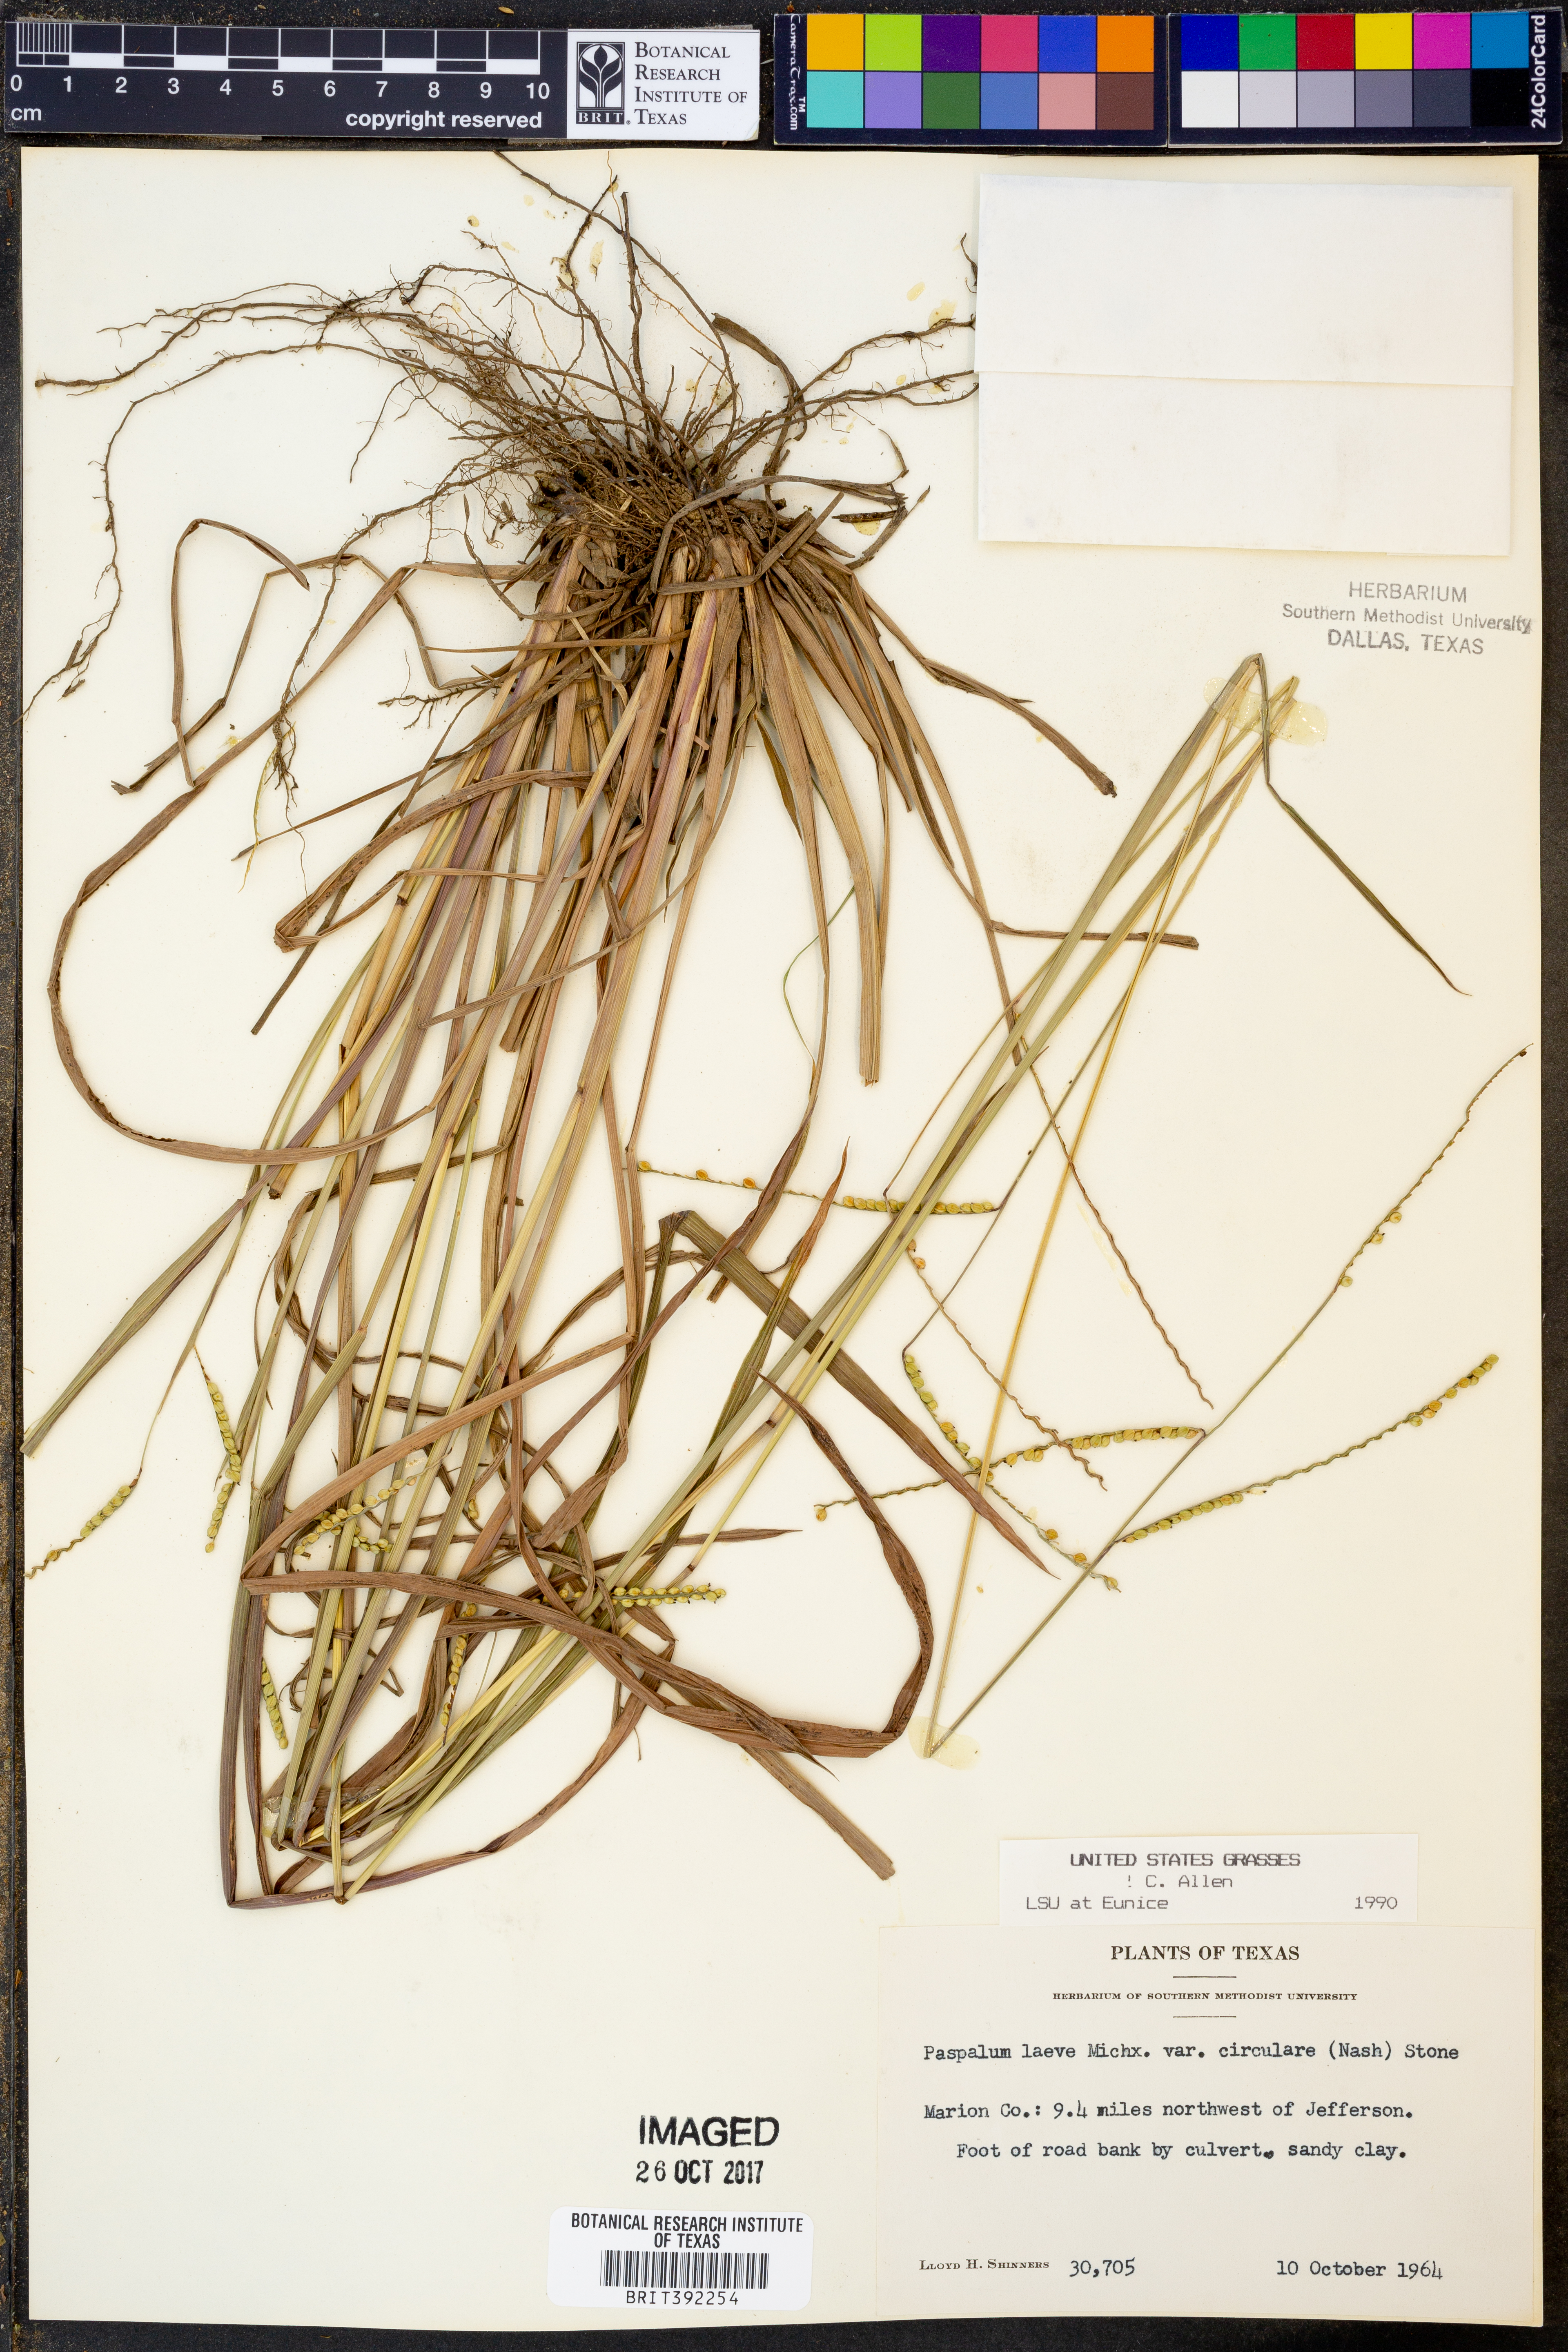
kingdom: Plantae
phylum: Tracheophyta
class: Liliopsida
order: Poales
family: Poaceae
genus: Paspalum
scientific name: Paspalum laeve
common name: Field paspalum
